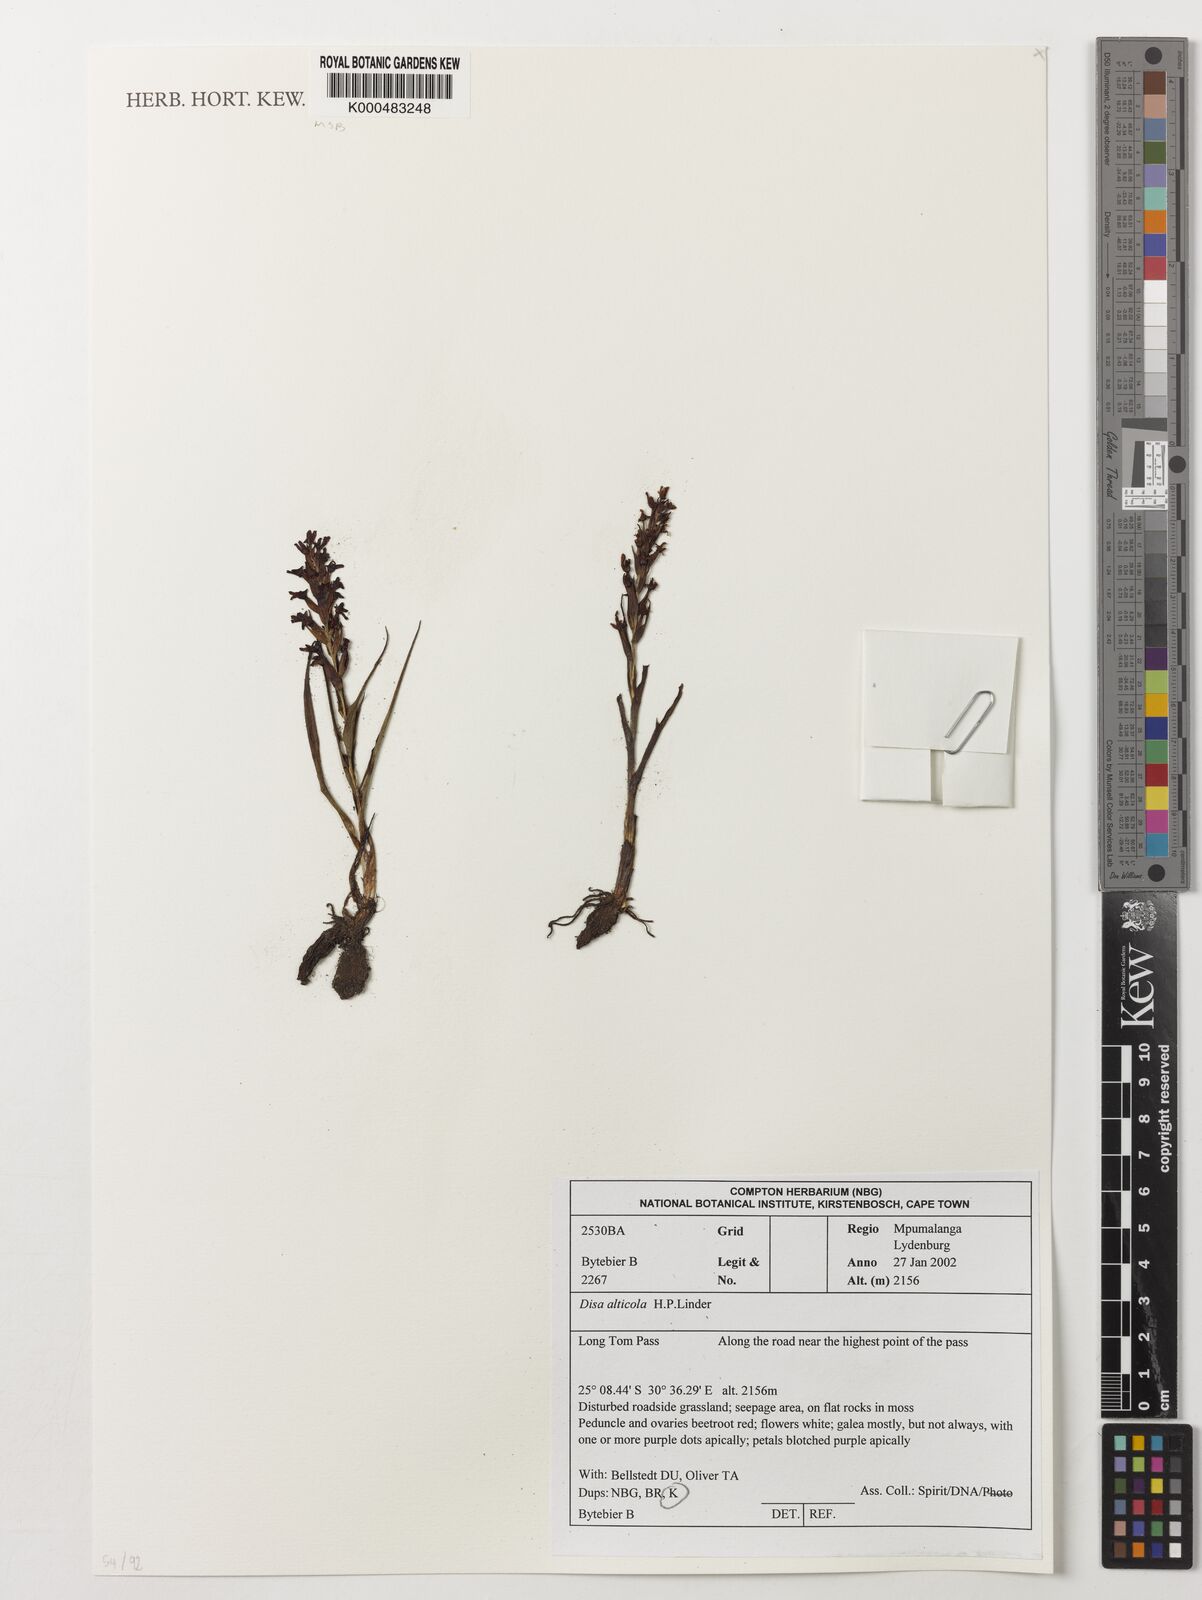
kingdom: Plantae
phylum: Tracheophyta
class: Liliopsida
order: Asparagales
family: Orchidaceae
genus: Disa
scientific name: Disa alticola
